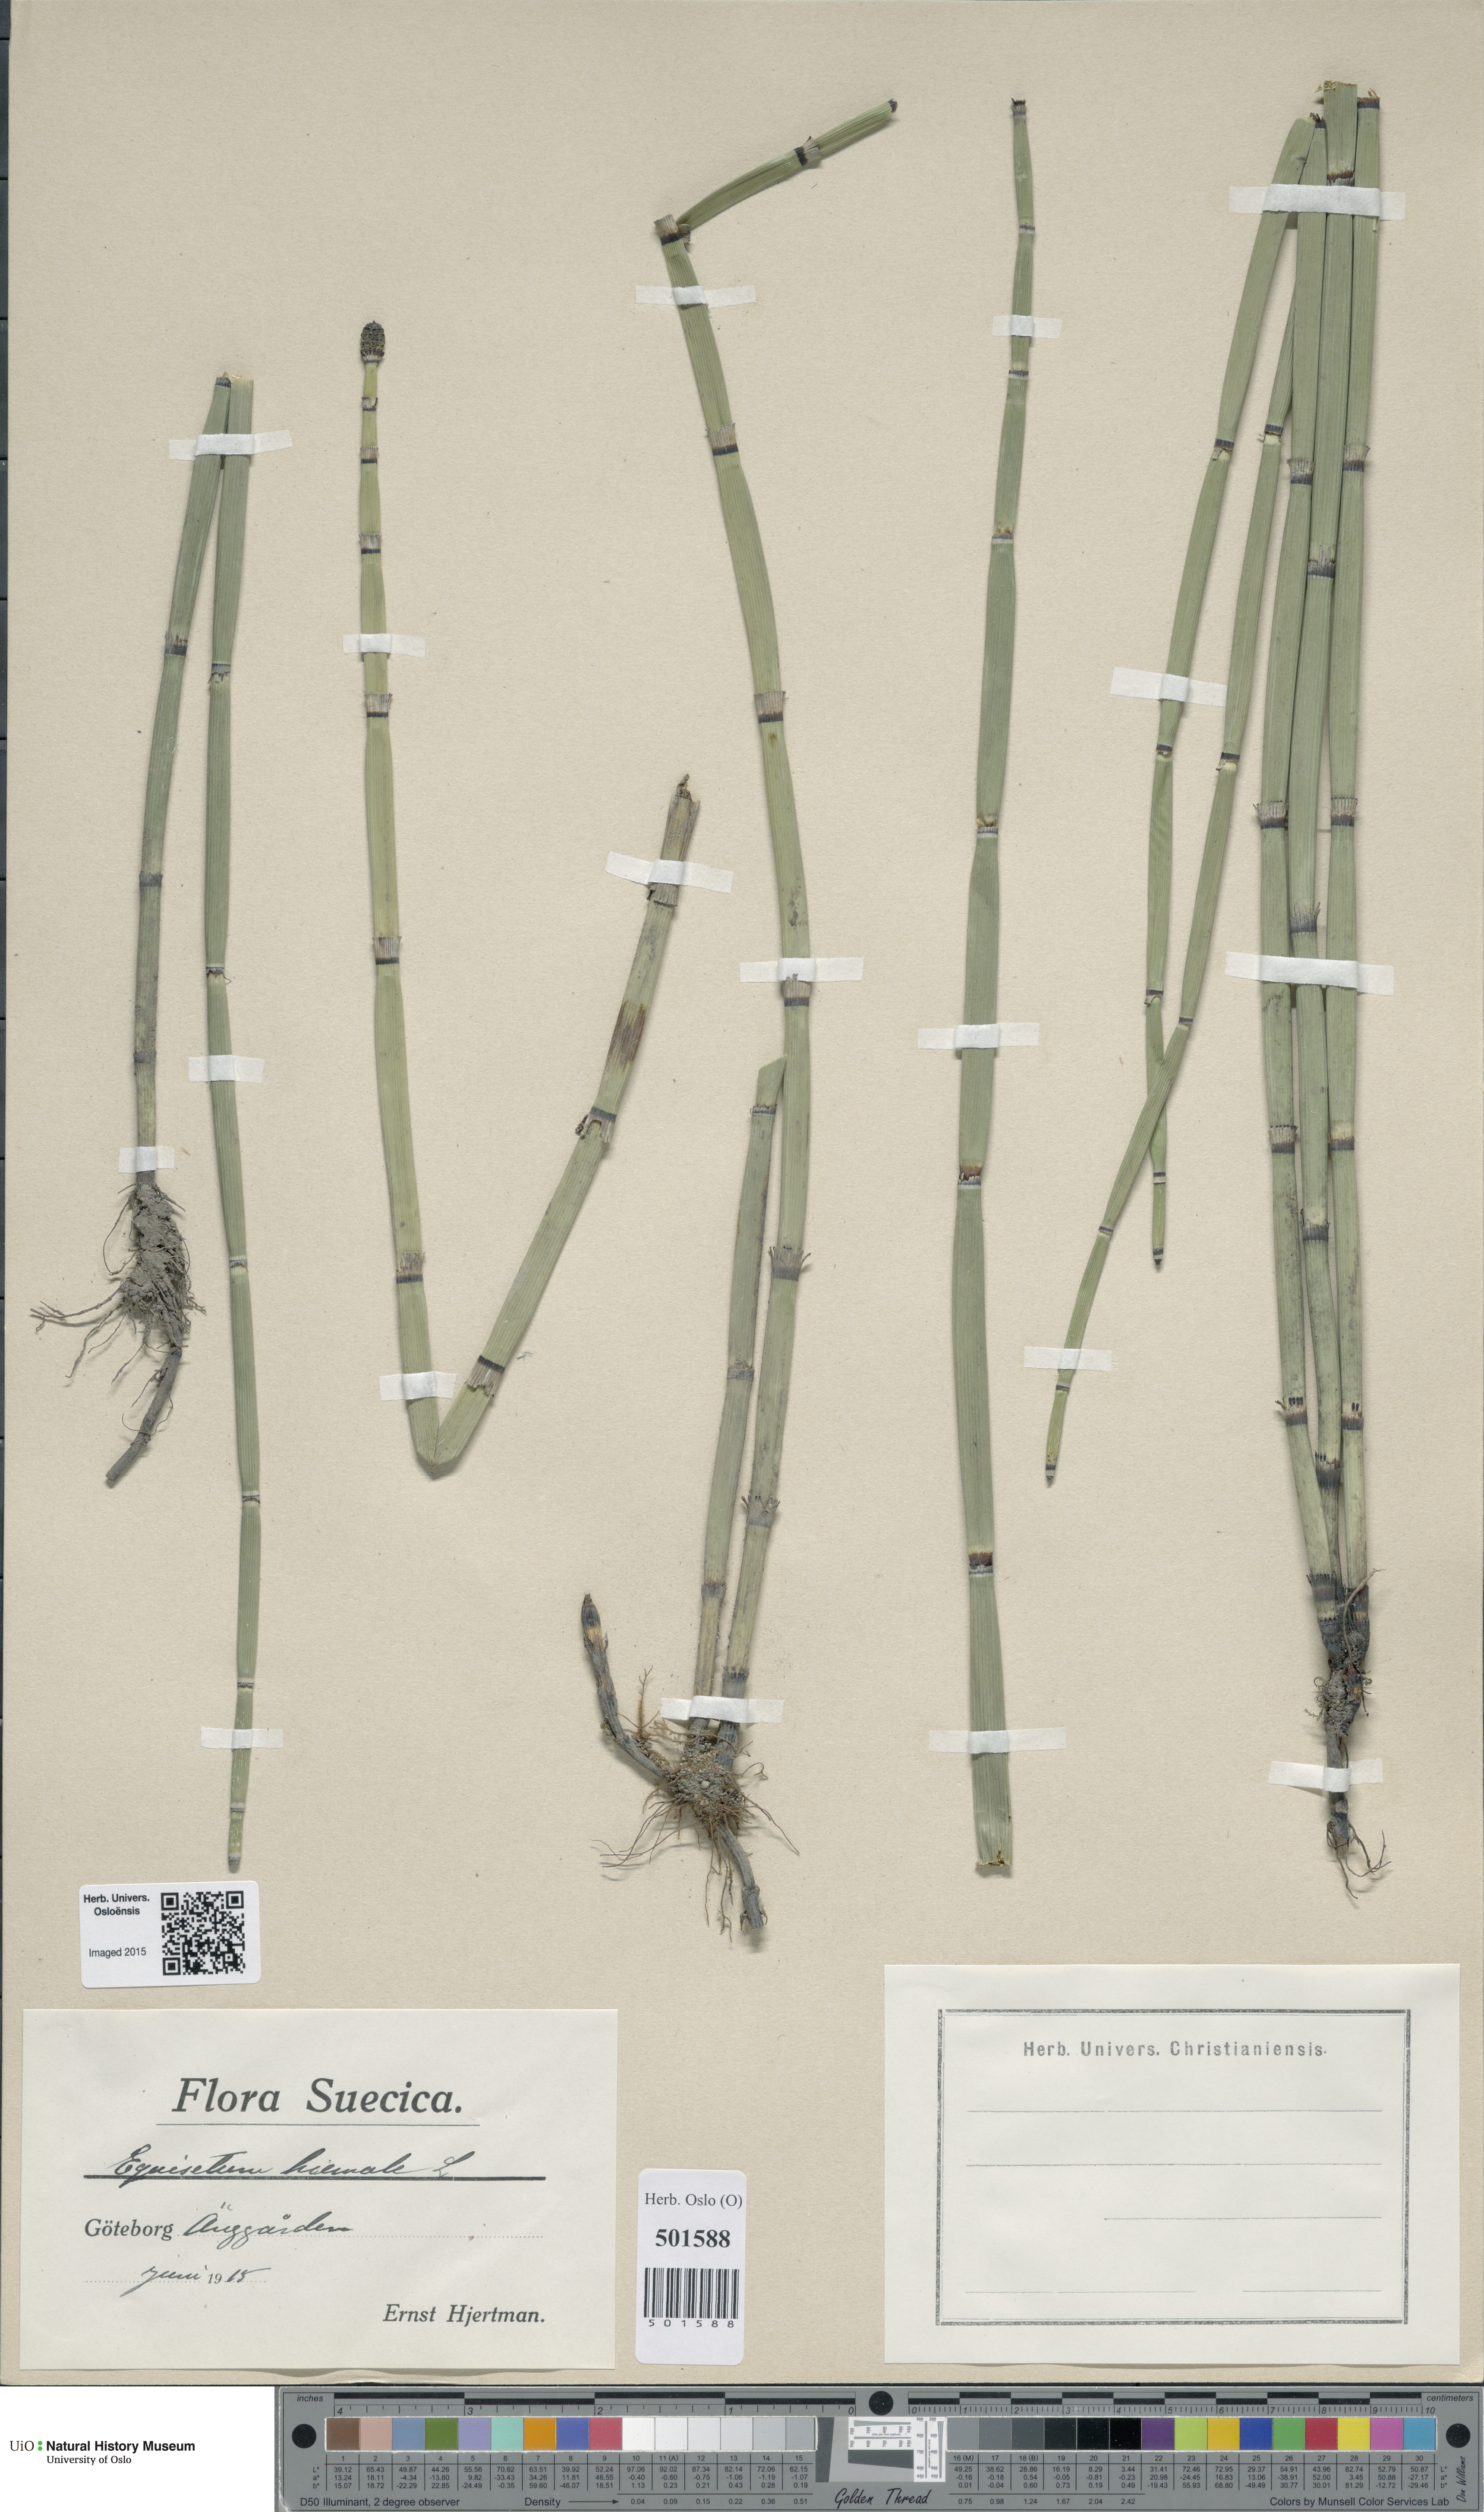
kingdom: Plantae
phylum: Tracheophyta
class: Polypodiopsida
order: Equisetales
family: Equisetaceae
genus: Equisetum
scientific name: Equisetum hyemale
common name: Rough horsetail
